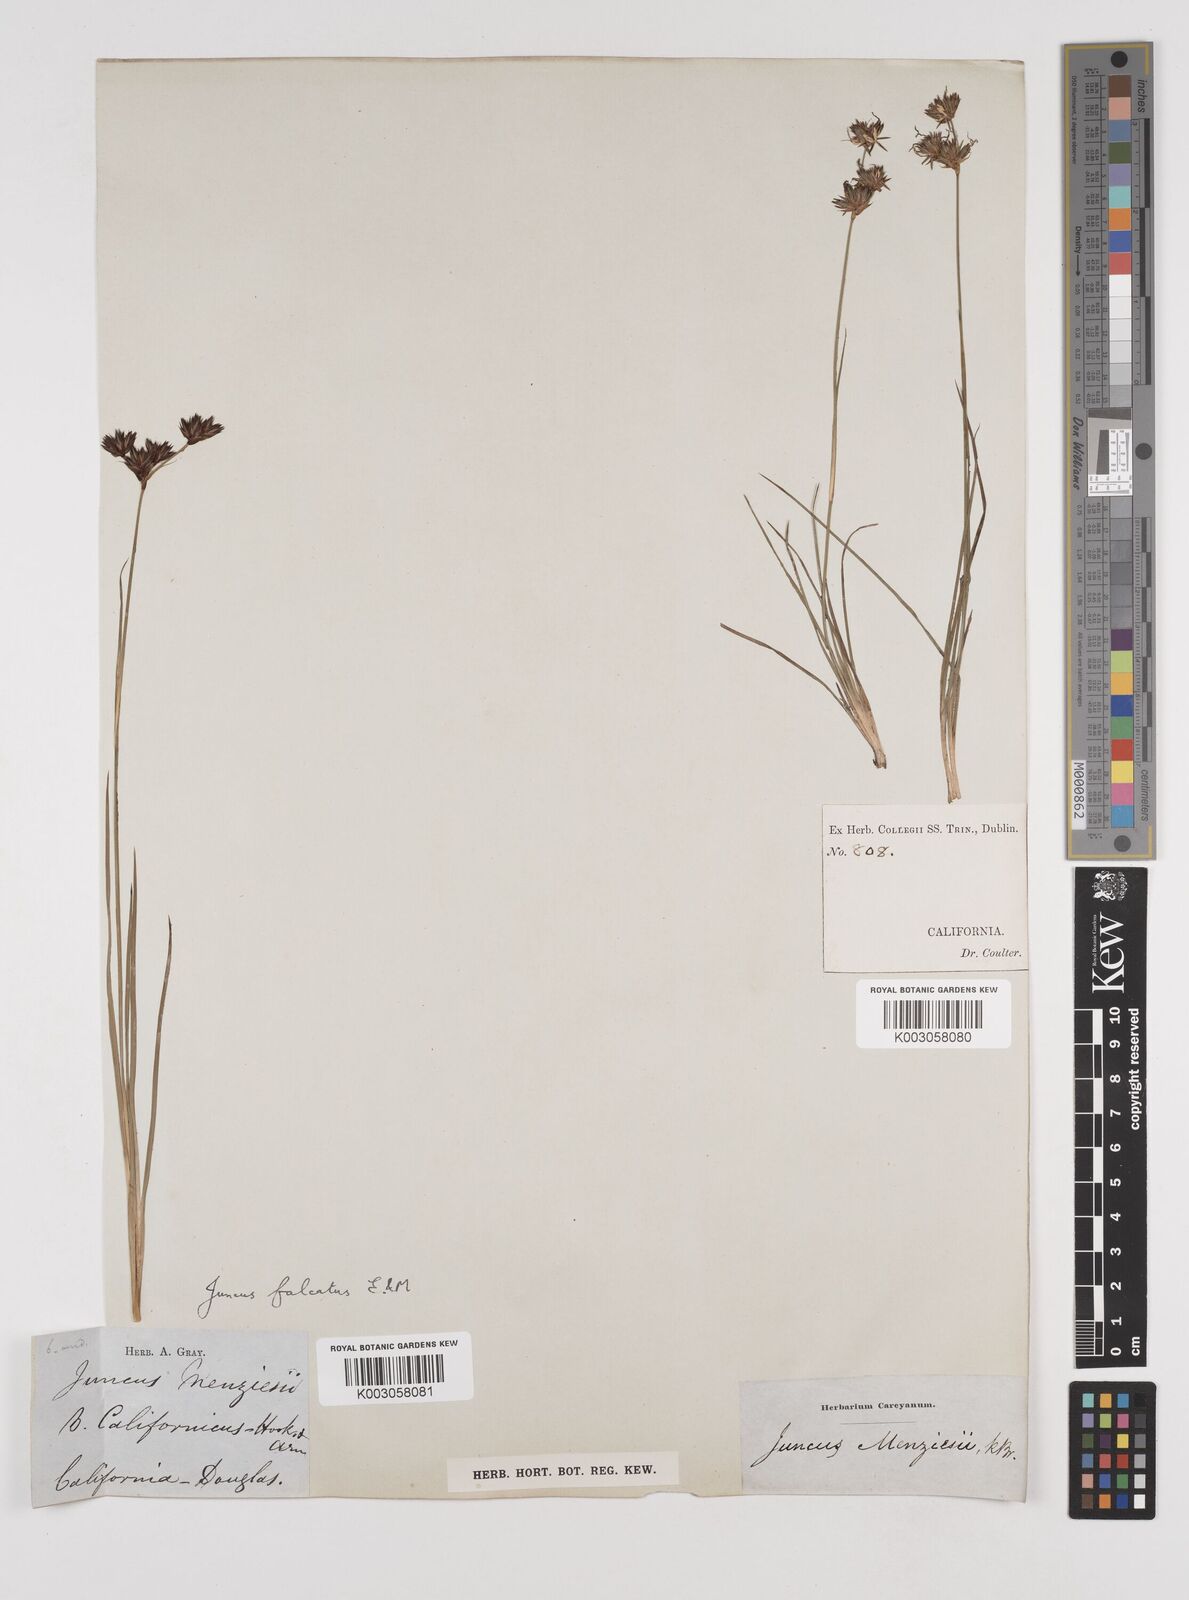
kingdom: Plantae
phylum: Tracheophyta
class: Liliopsida
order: Poales
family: Juncaceae
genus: Juncus
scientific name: Juncus falcatus
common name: Sickle-leaf rush
